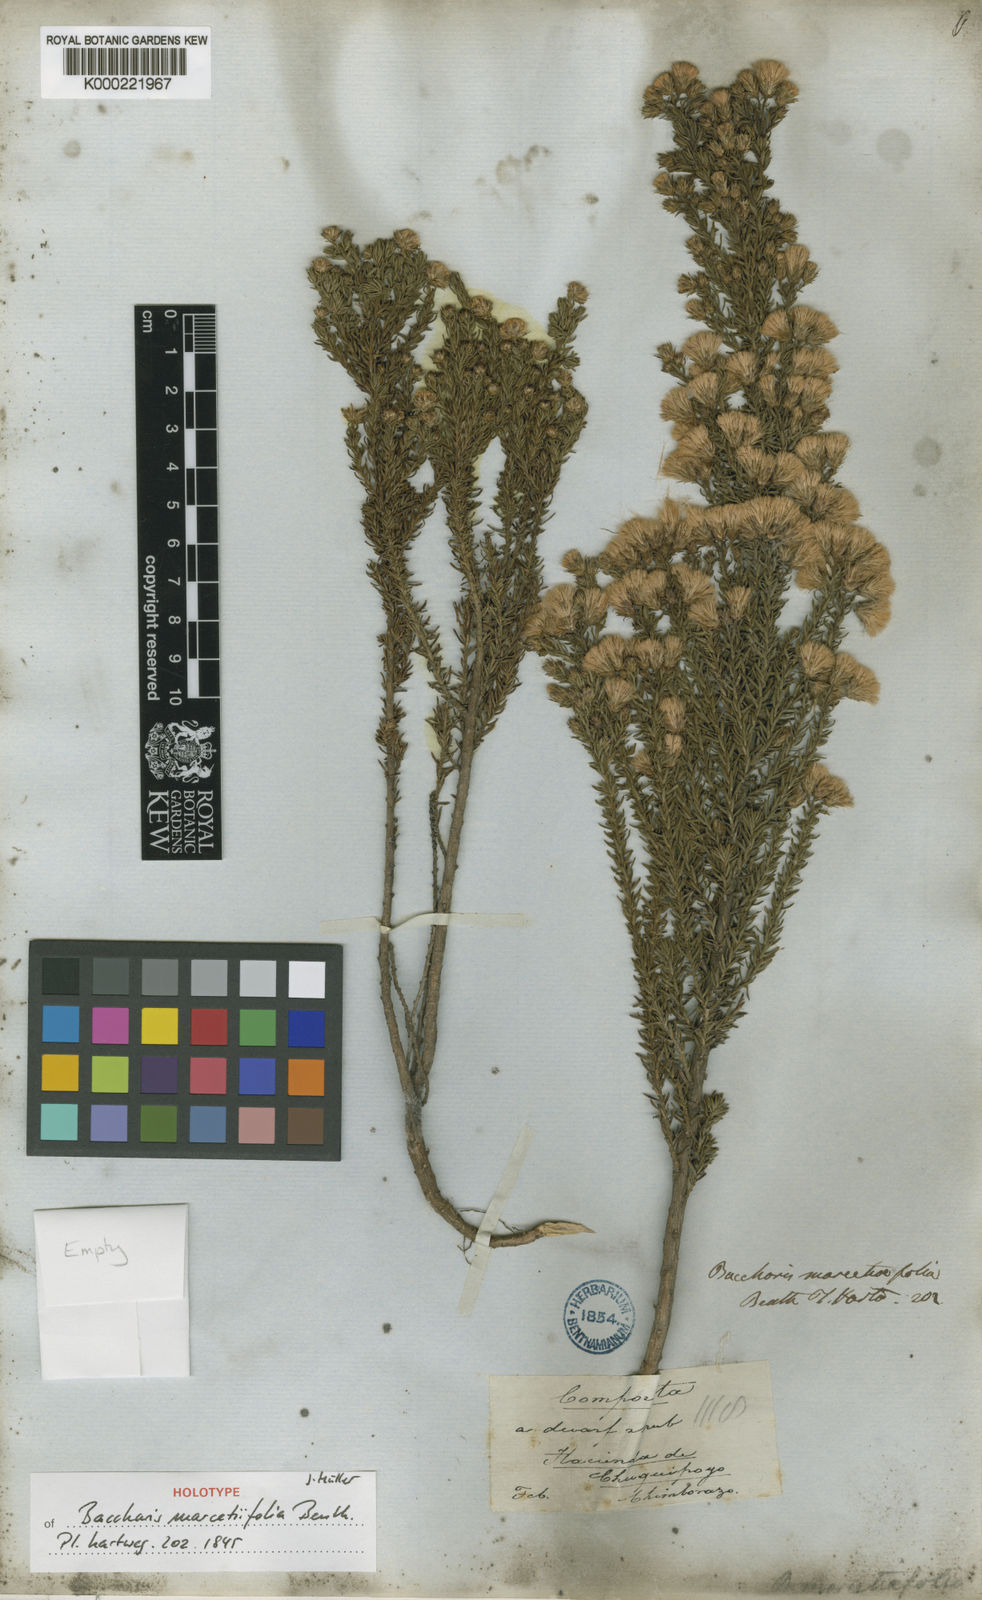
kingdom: Plantae
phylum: Tracheophyta
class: Magnoliopsida
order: Asterales
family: Asteraceae
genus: Baccharis
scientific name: Baccharis marcetiifolia
